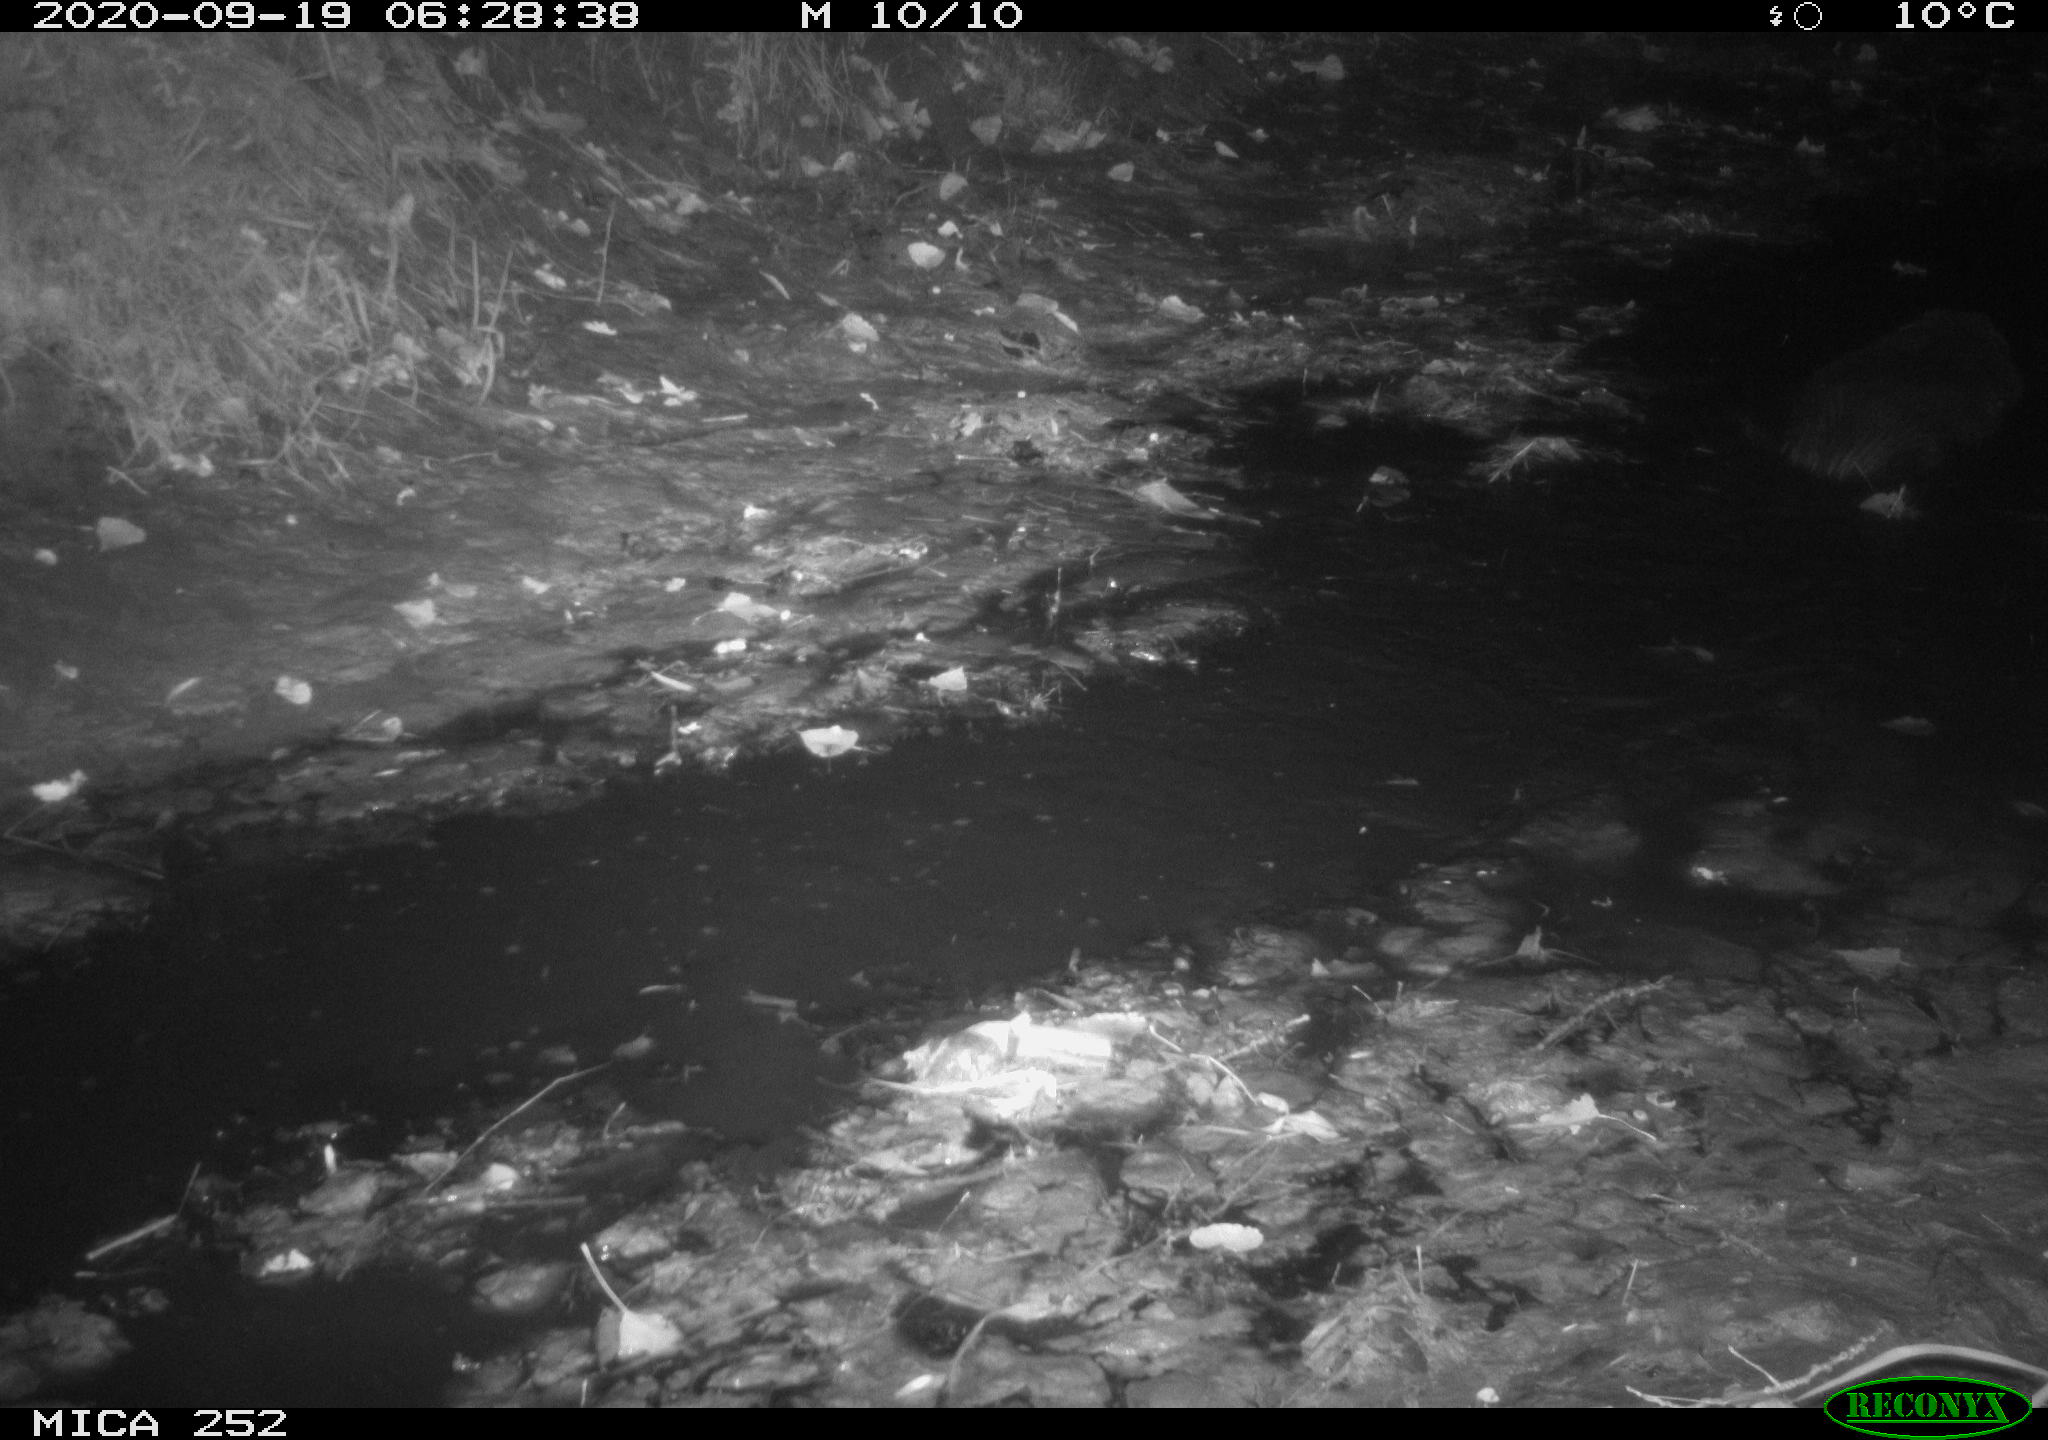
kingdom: Animalia
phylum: Chordata
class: Mammalia
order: Rodentia
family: Castoridae
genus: Castor
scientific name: Castor fiber
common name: Eurasian beaver
